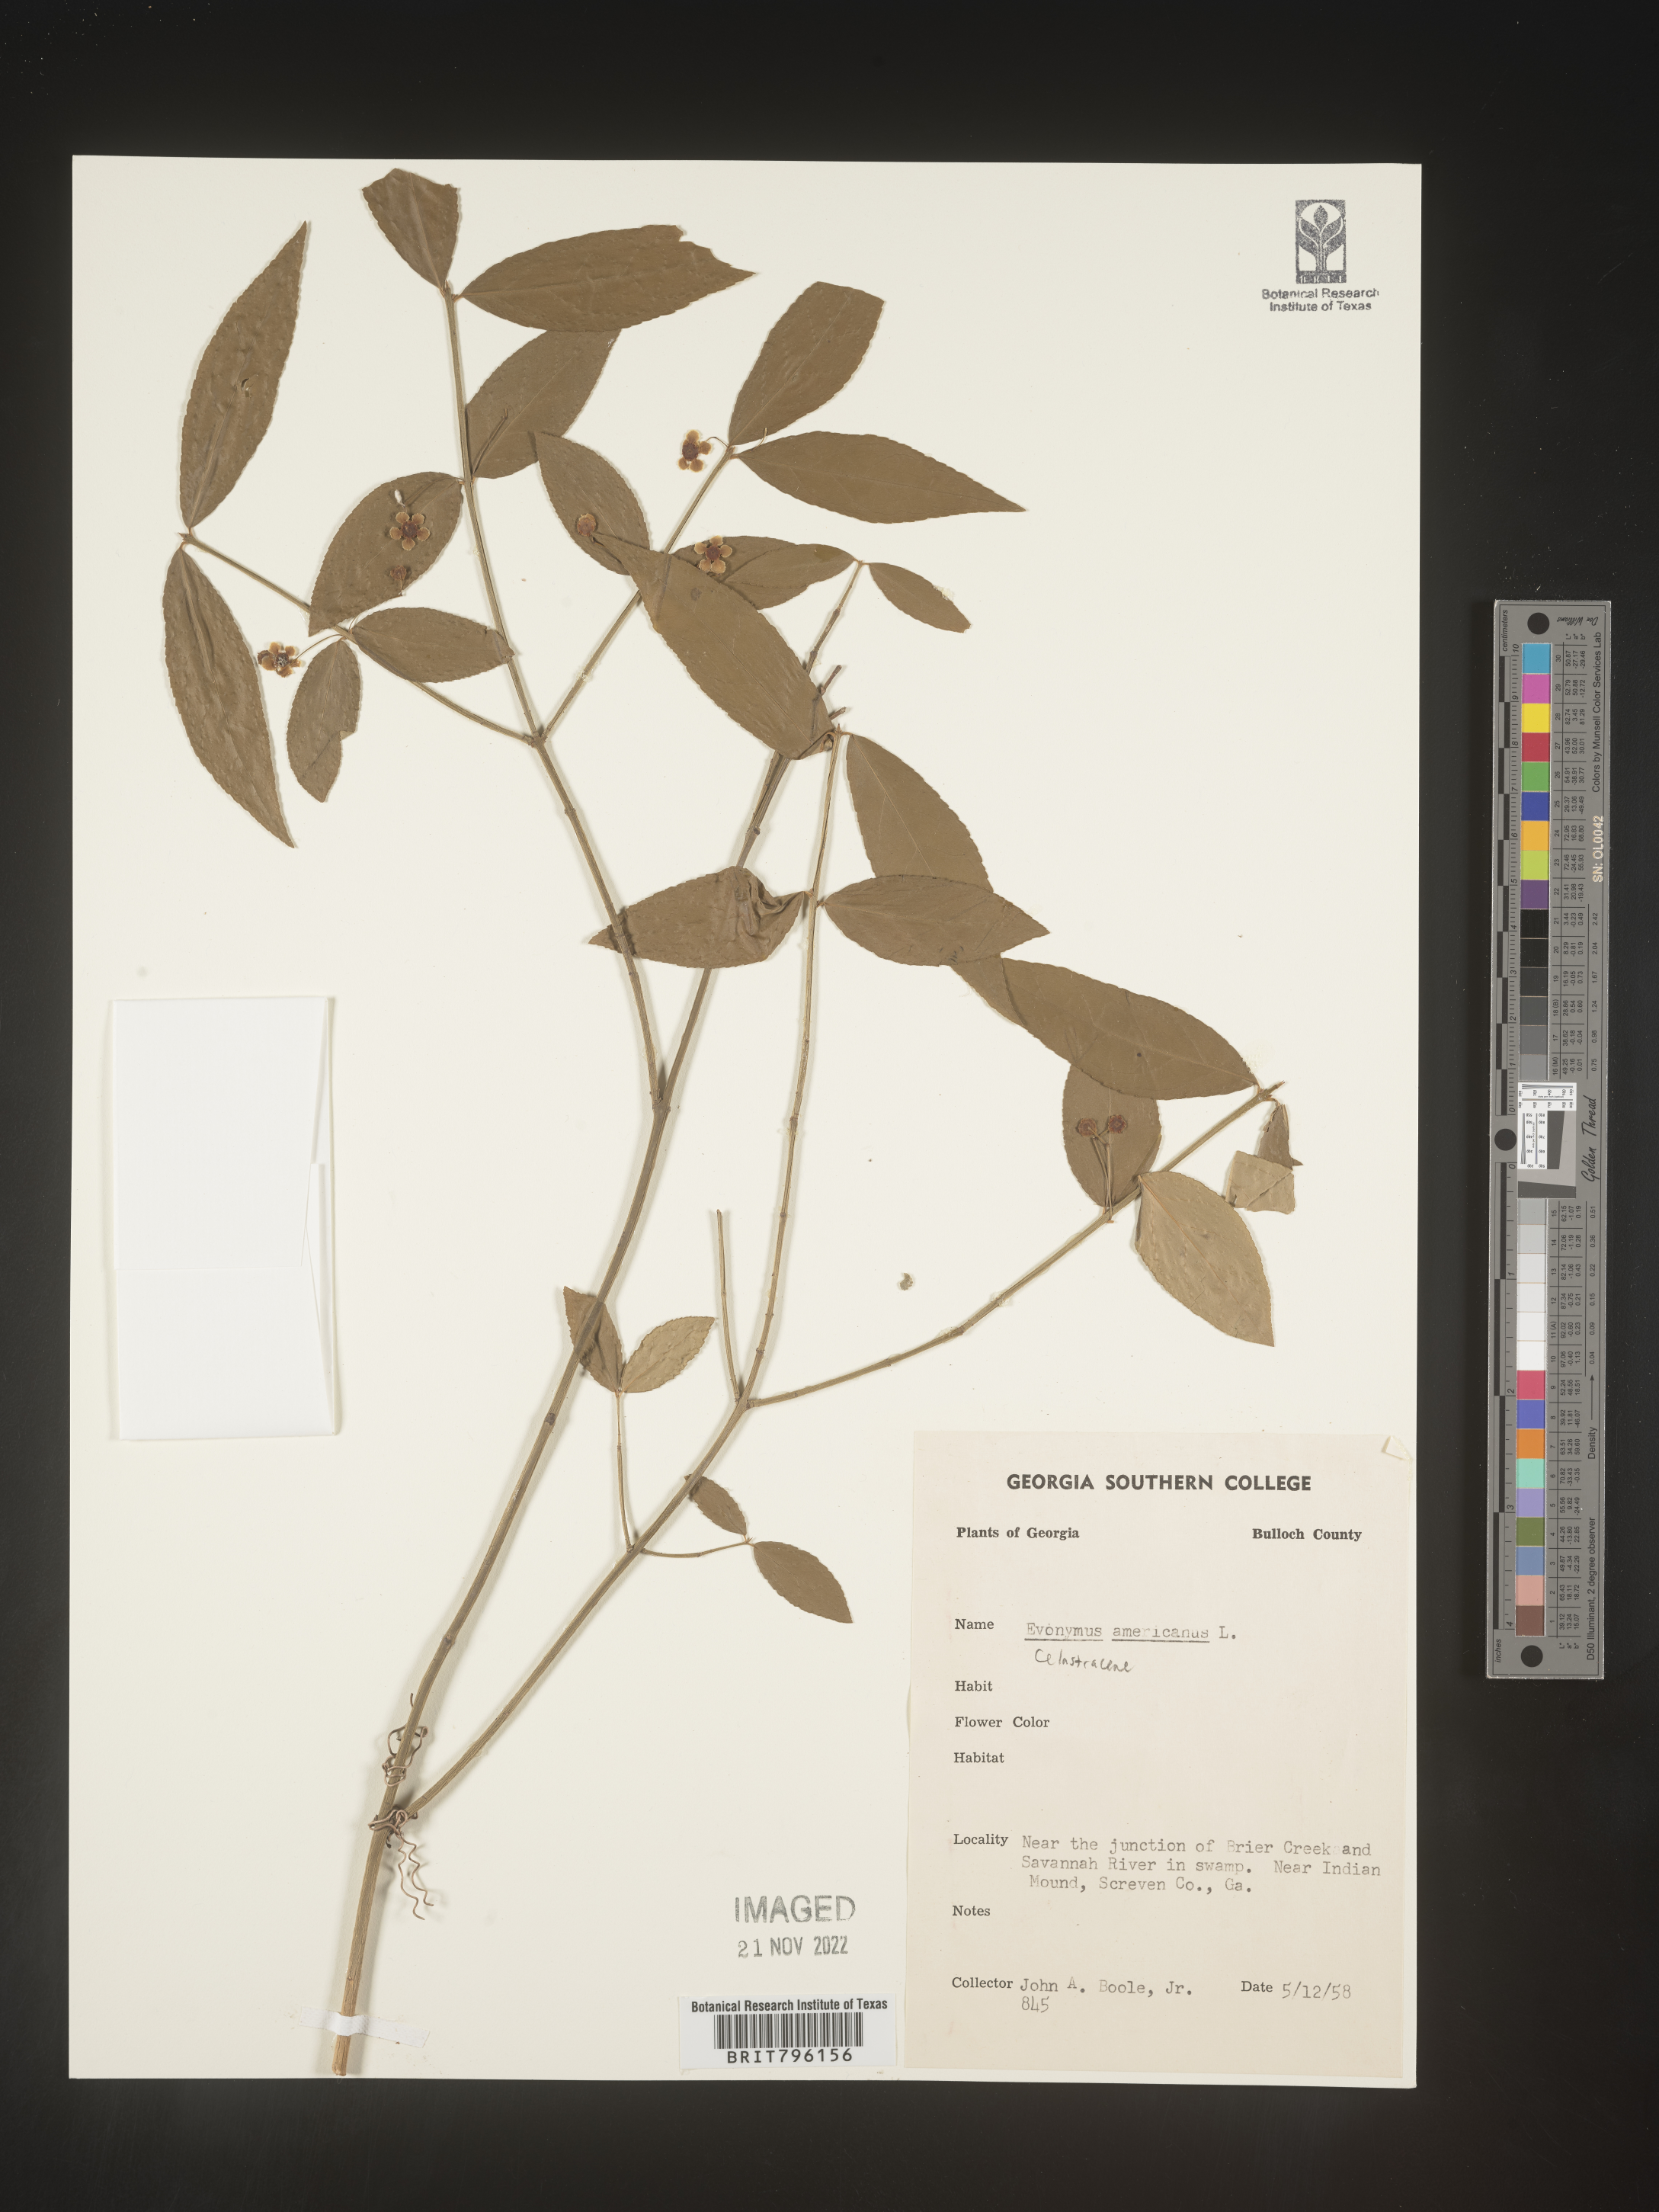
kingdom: Plantae
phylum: Tracheophyta
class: Magnoliopsida
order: Celastrales
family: Celastraceae
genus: Euonymus
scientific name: Euonymus americanus
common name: Bursting-heart
